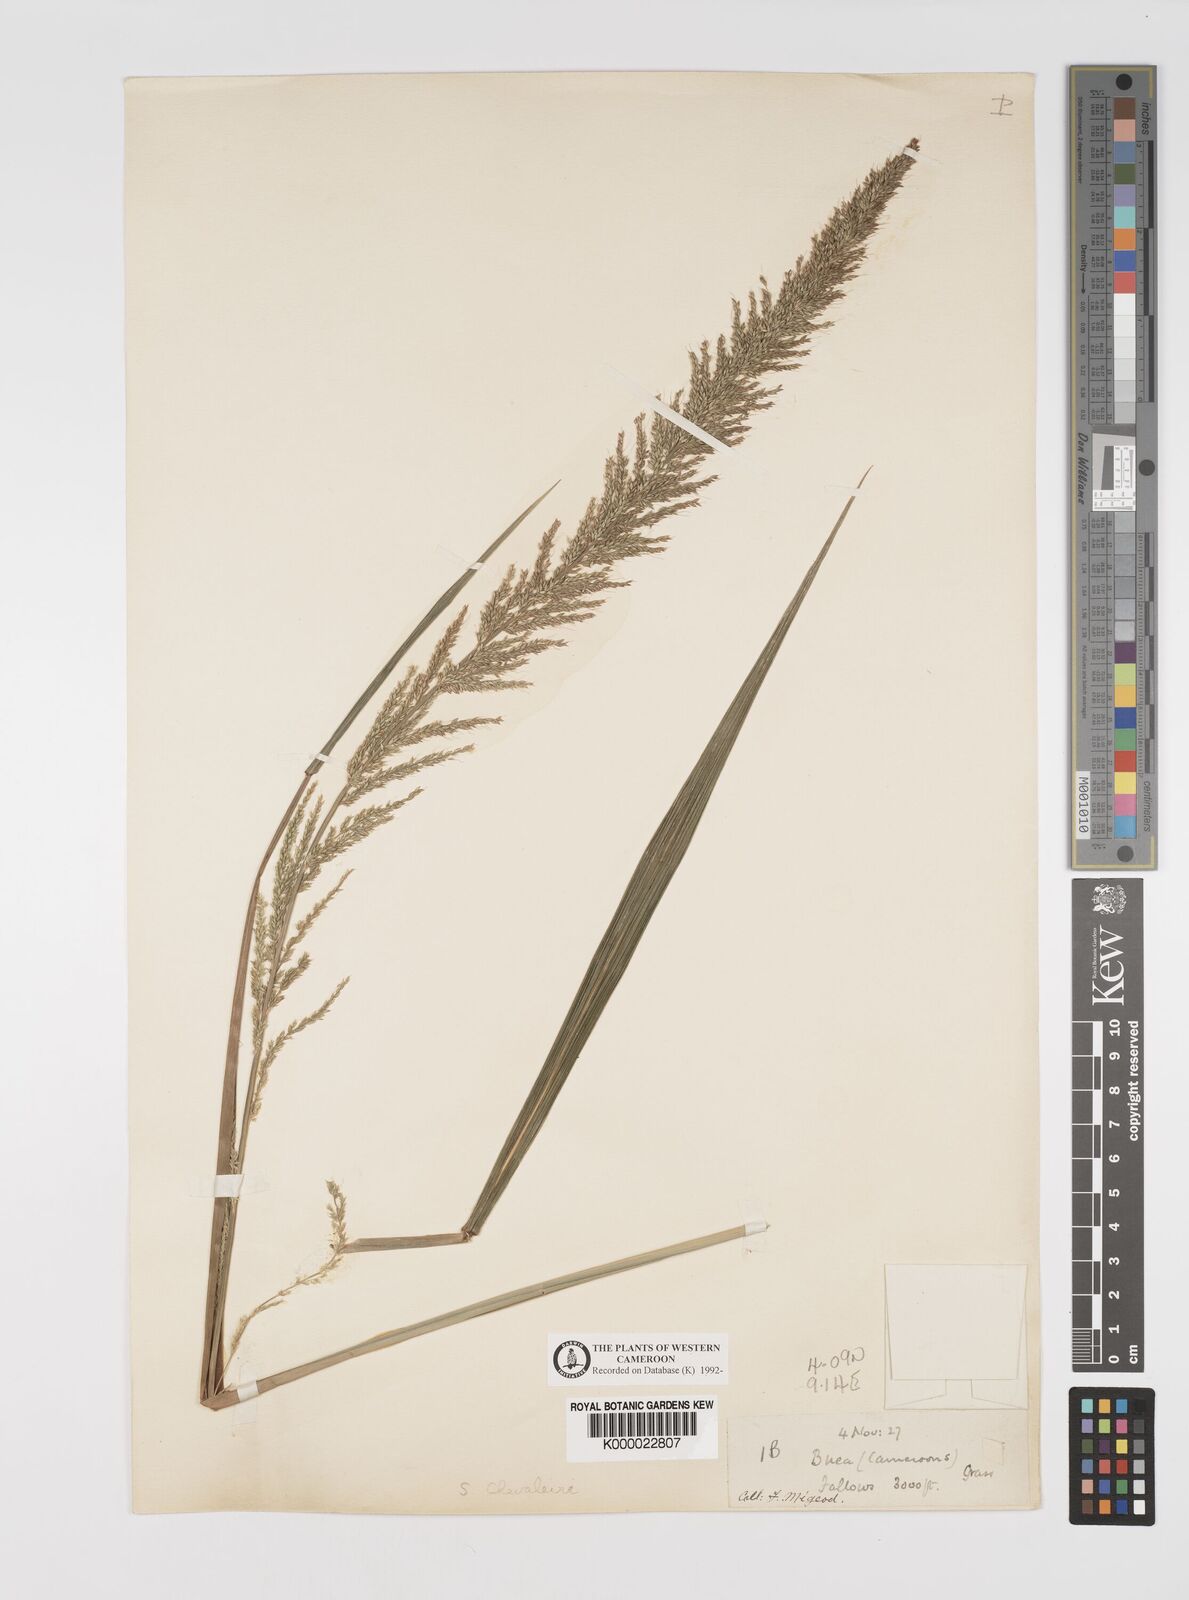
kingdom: Plantae
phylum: Tracheophyta
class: Liliopsida
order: Poales
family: Poaceae
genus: Setaria
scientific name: Setaria megaphylla
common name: Bigleaf bristlegrass
